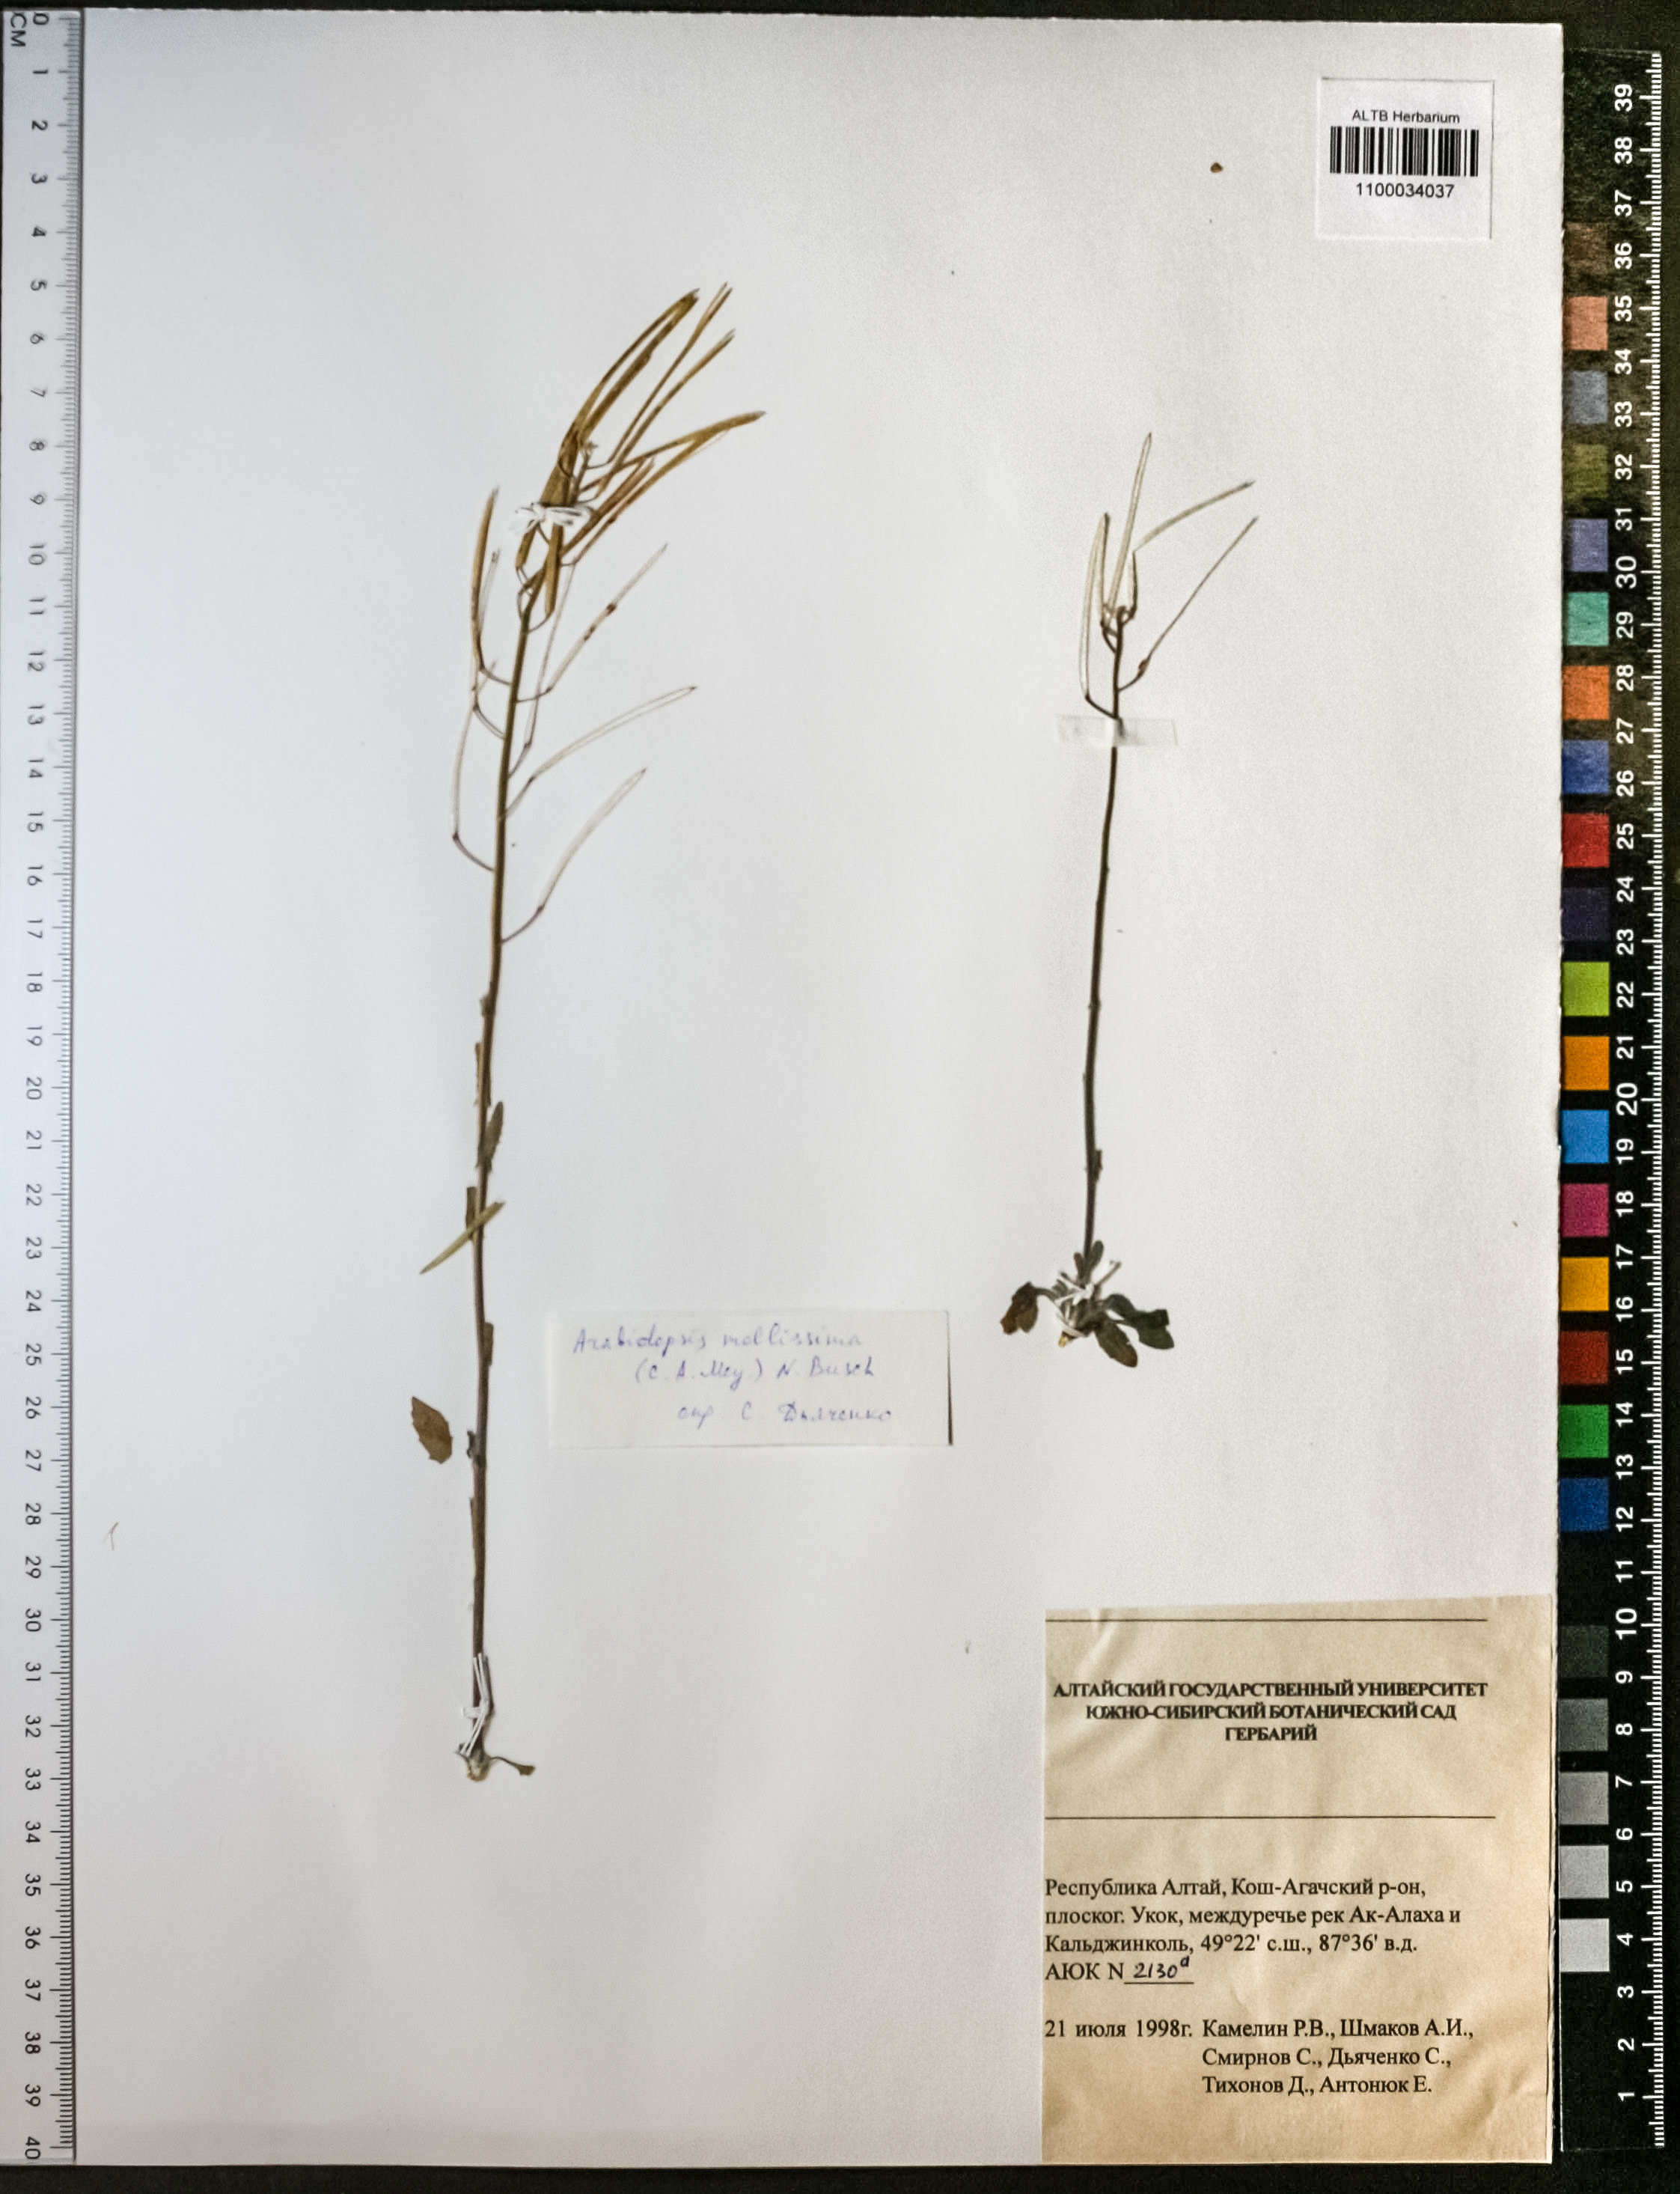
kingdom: Plantae
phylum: Tracheophyta
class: Magnoliopsida
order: Brassicales
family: Brassicaceae
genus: Crucihimalaya
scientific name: Crucihimalaya mollissima
